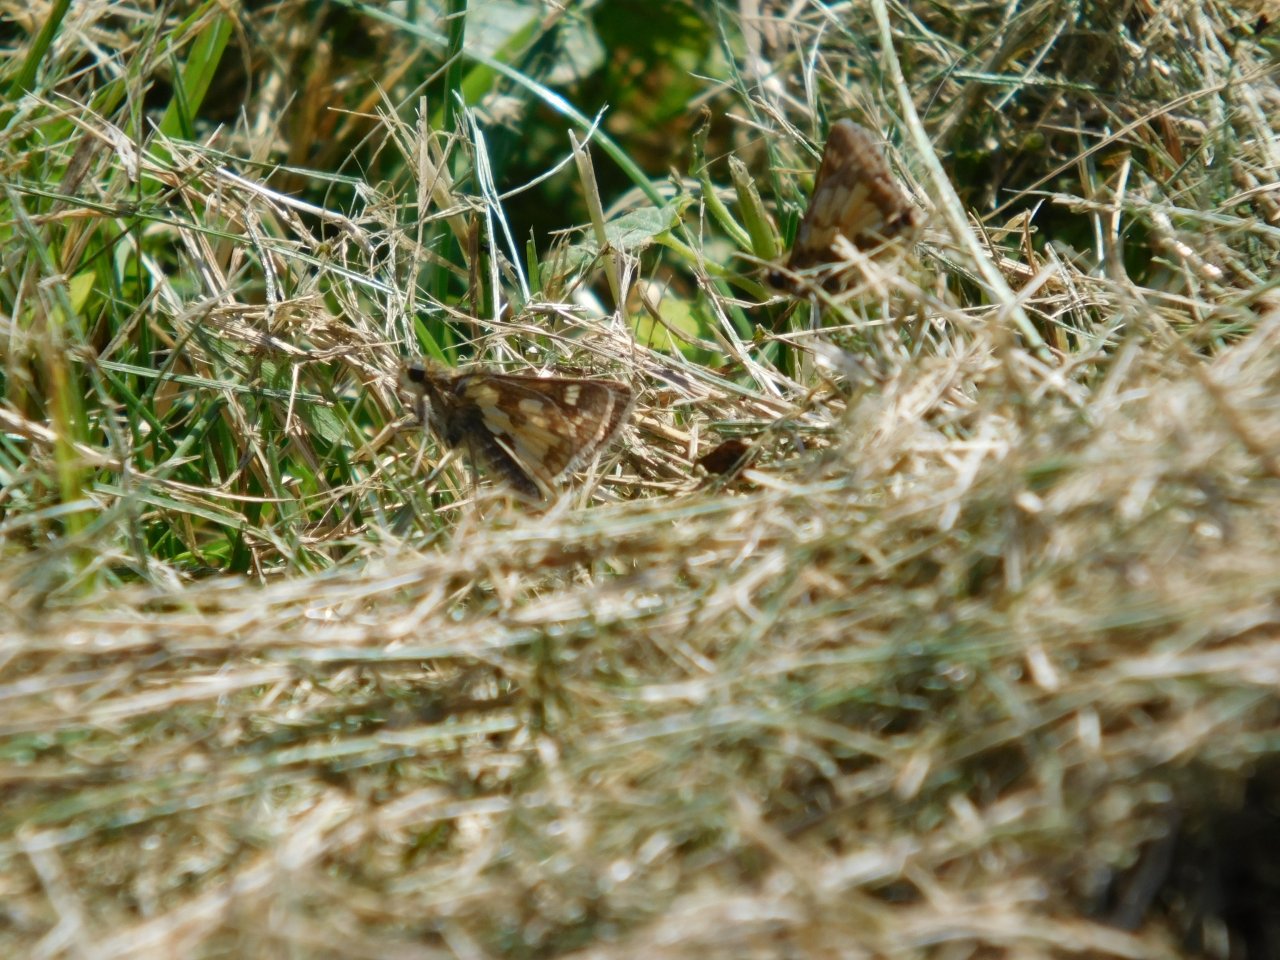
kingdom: Animalia
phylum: Arthropoda
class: Insecta
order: Lepidoptera
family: Hesperiidae
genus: Polites
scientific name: Polites coras
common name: Peck's Skipper
